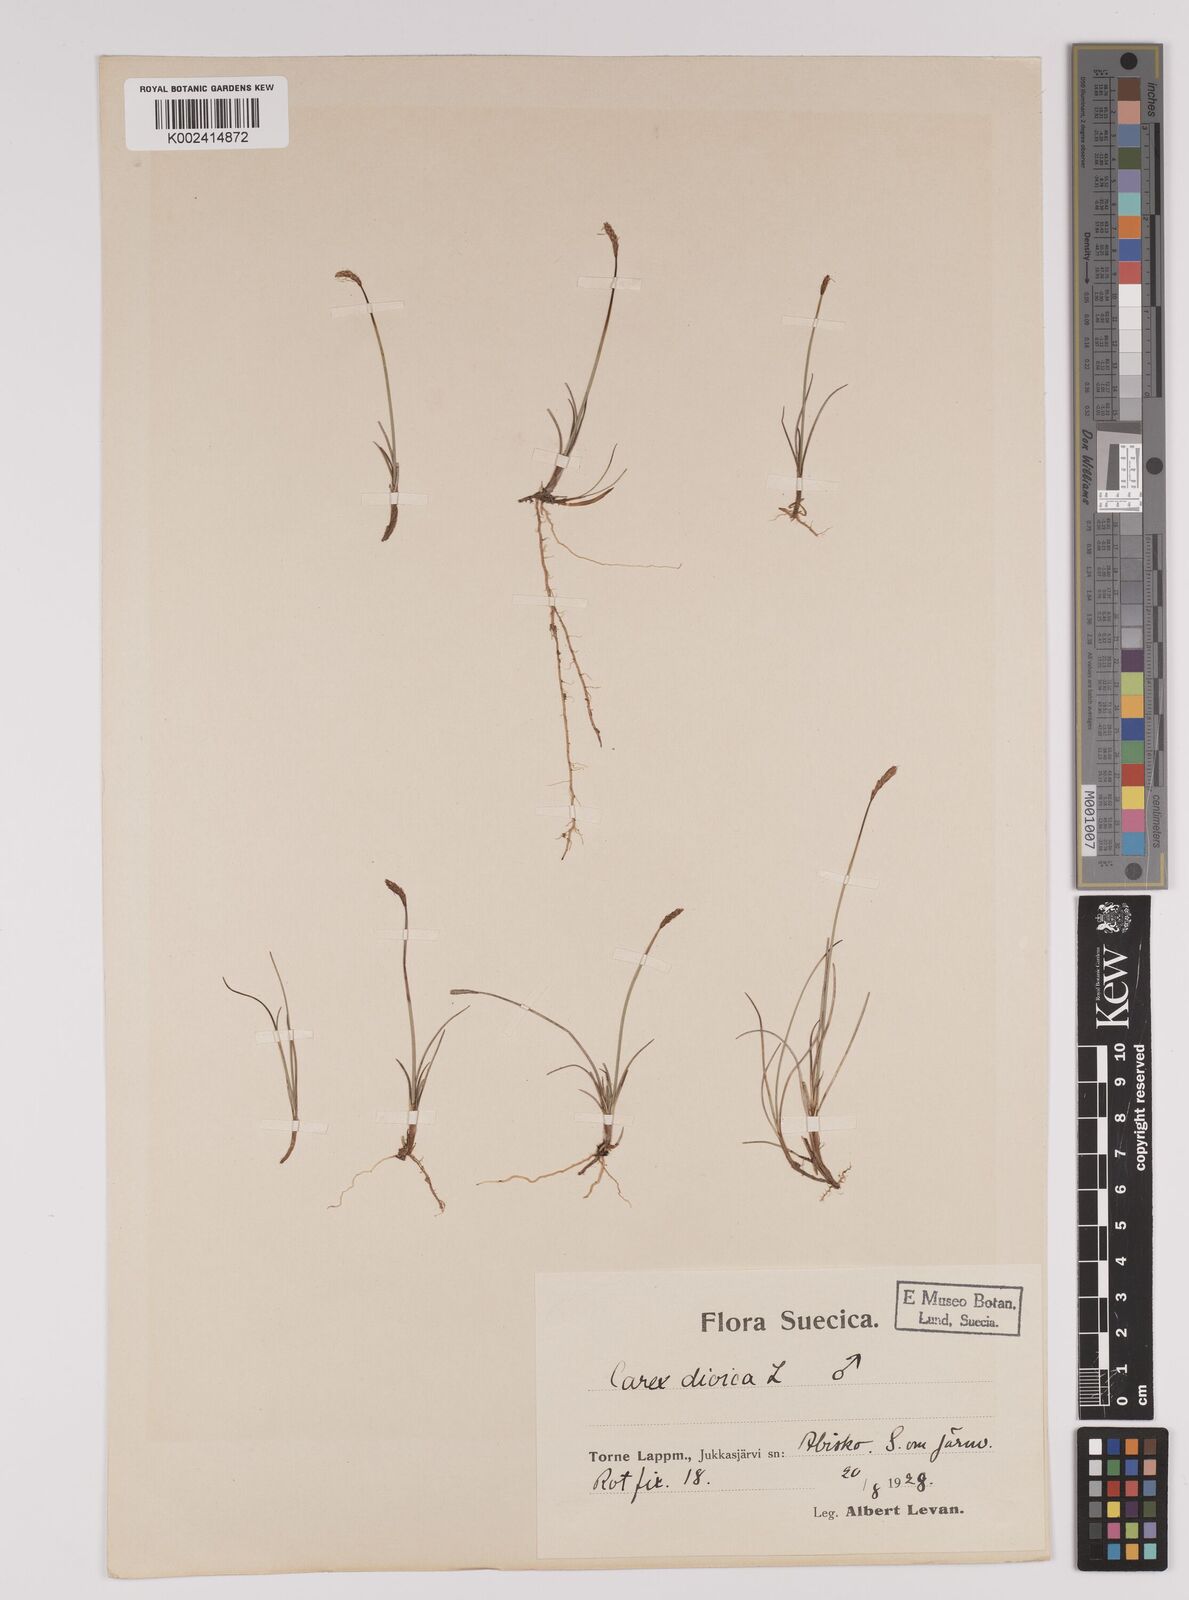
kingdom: Plantae
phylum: Tracheophyta
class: Liliopsida
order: Poales
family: Cyperaceae
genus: Carex
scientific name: Carex dioica
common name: Dioecious sedge
